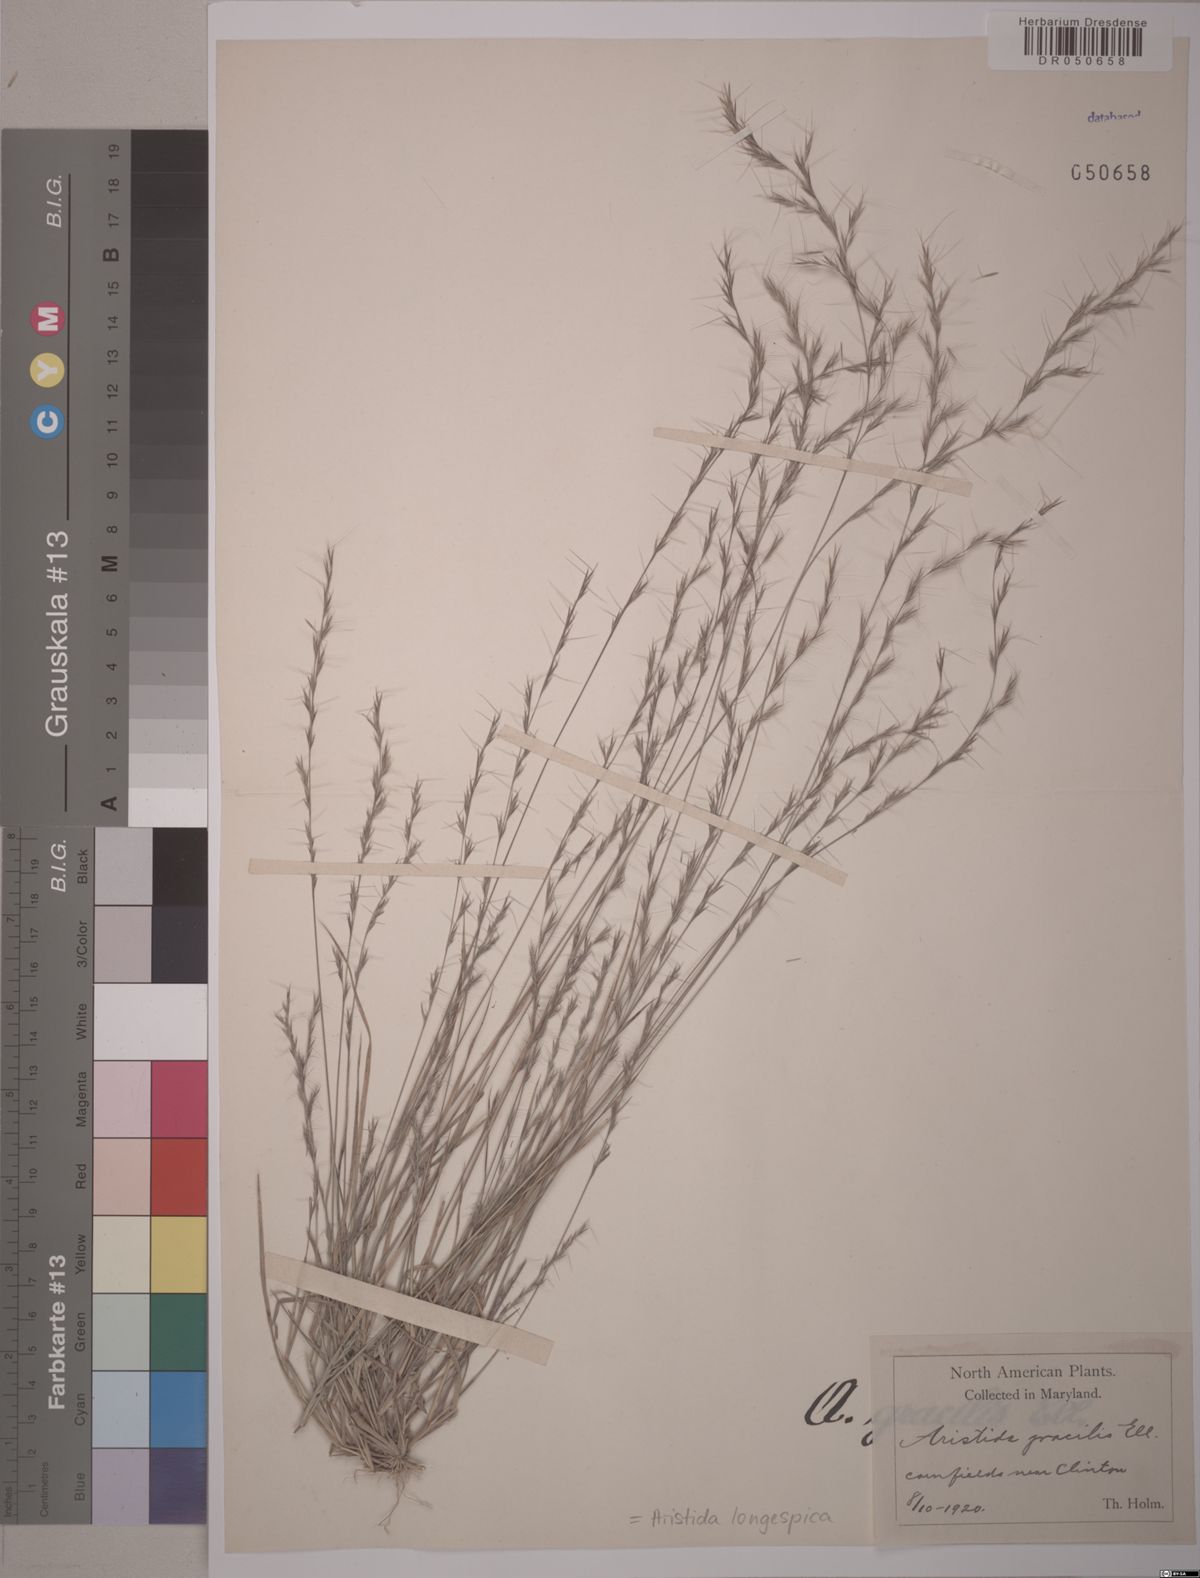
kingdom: Plantae
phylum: Tracheophyta
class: Liliopsida
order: Poales
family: Poaceae
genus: Aristida
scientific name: Aristida longespica
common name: Long-spiked triple-awned grass
